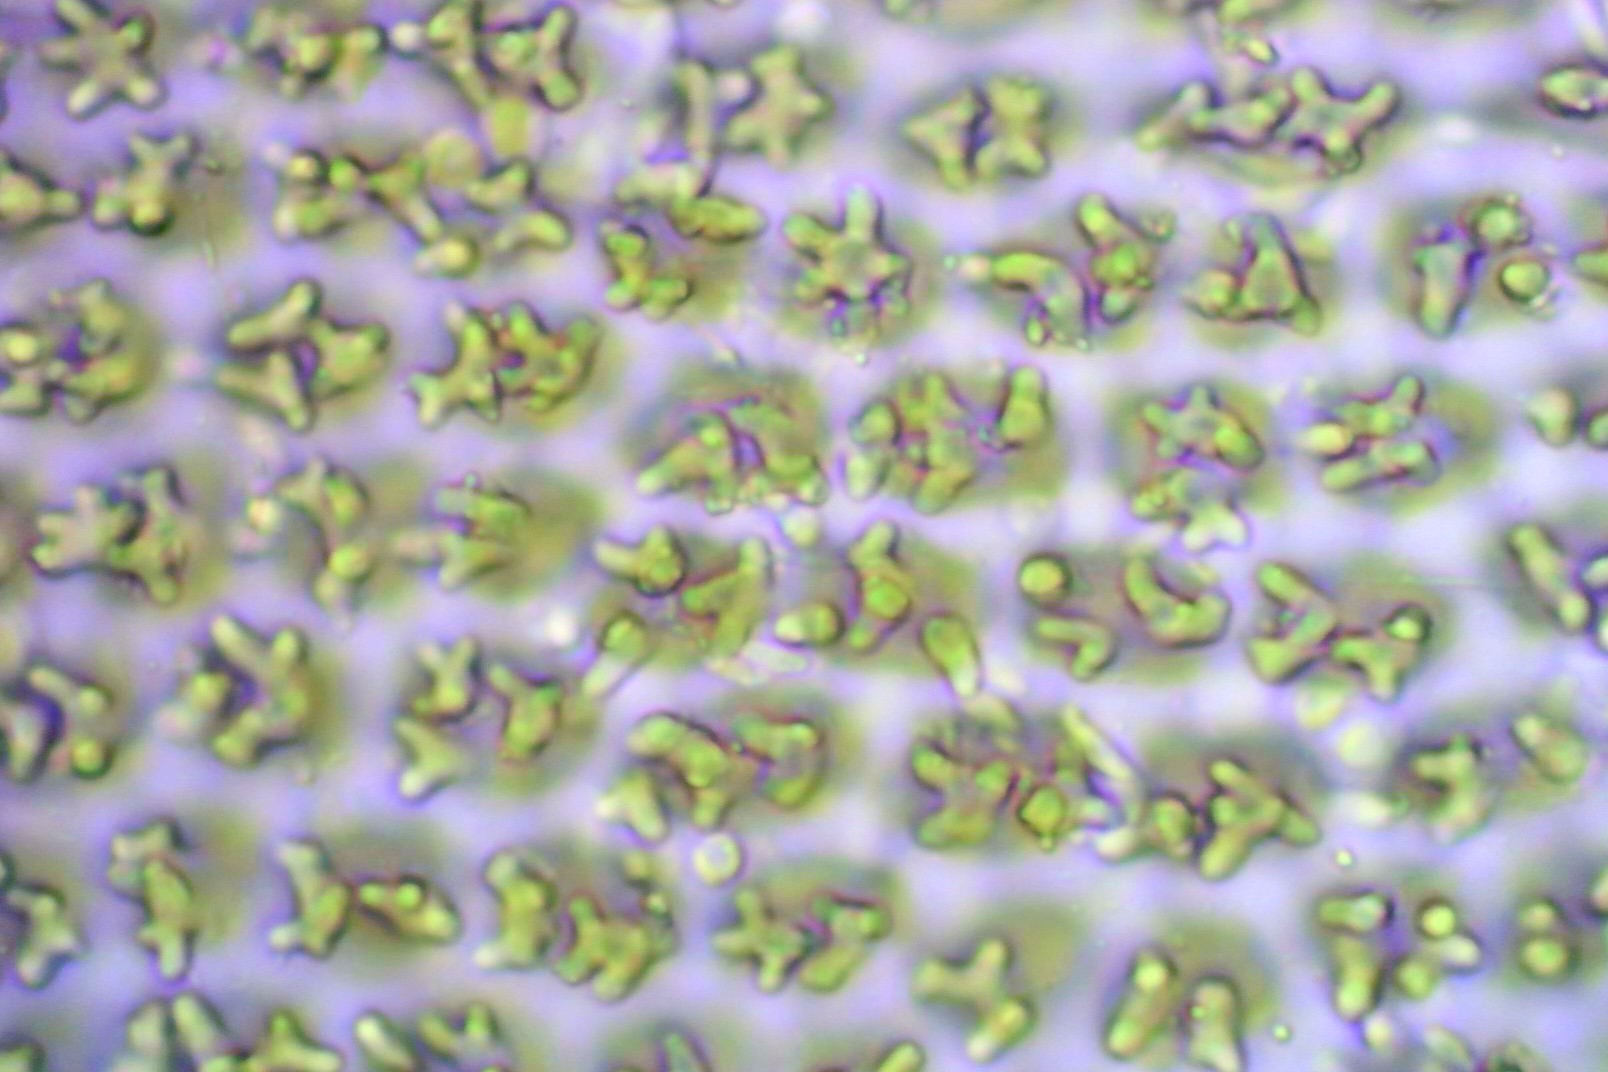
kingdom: Plantae
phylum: Bryophyta
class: Bryopsida
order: Hedwigiales
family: Hedwigiaceae
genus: Hedwigia
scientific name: Hedwigia ciliata
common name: Hvidspidset hedwigia
